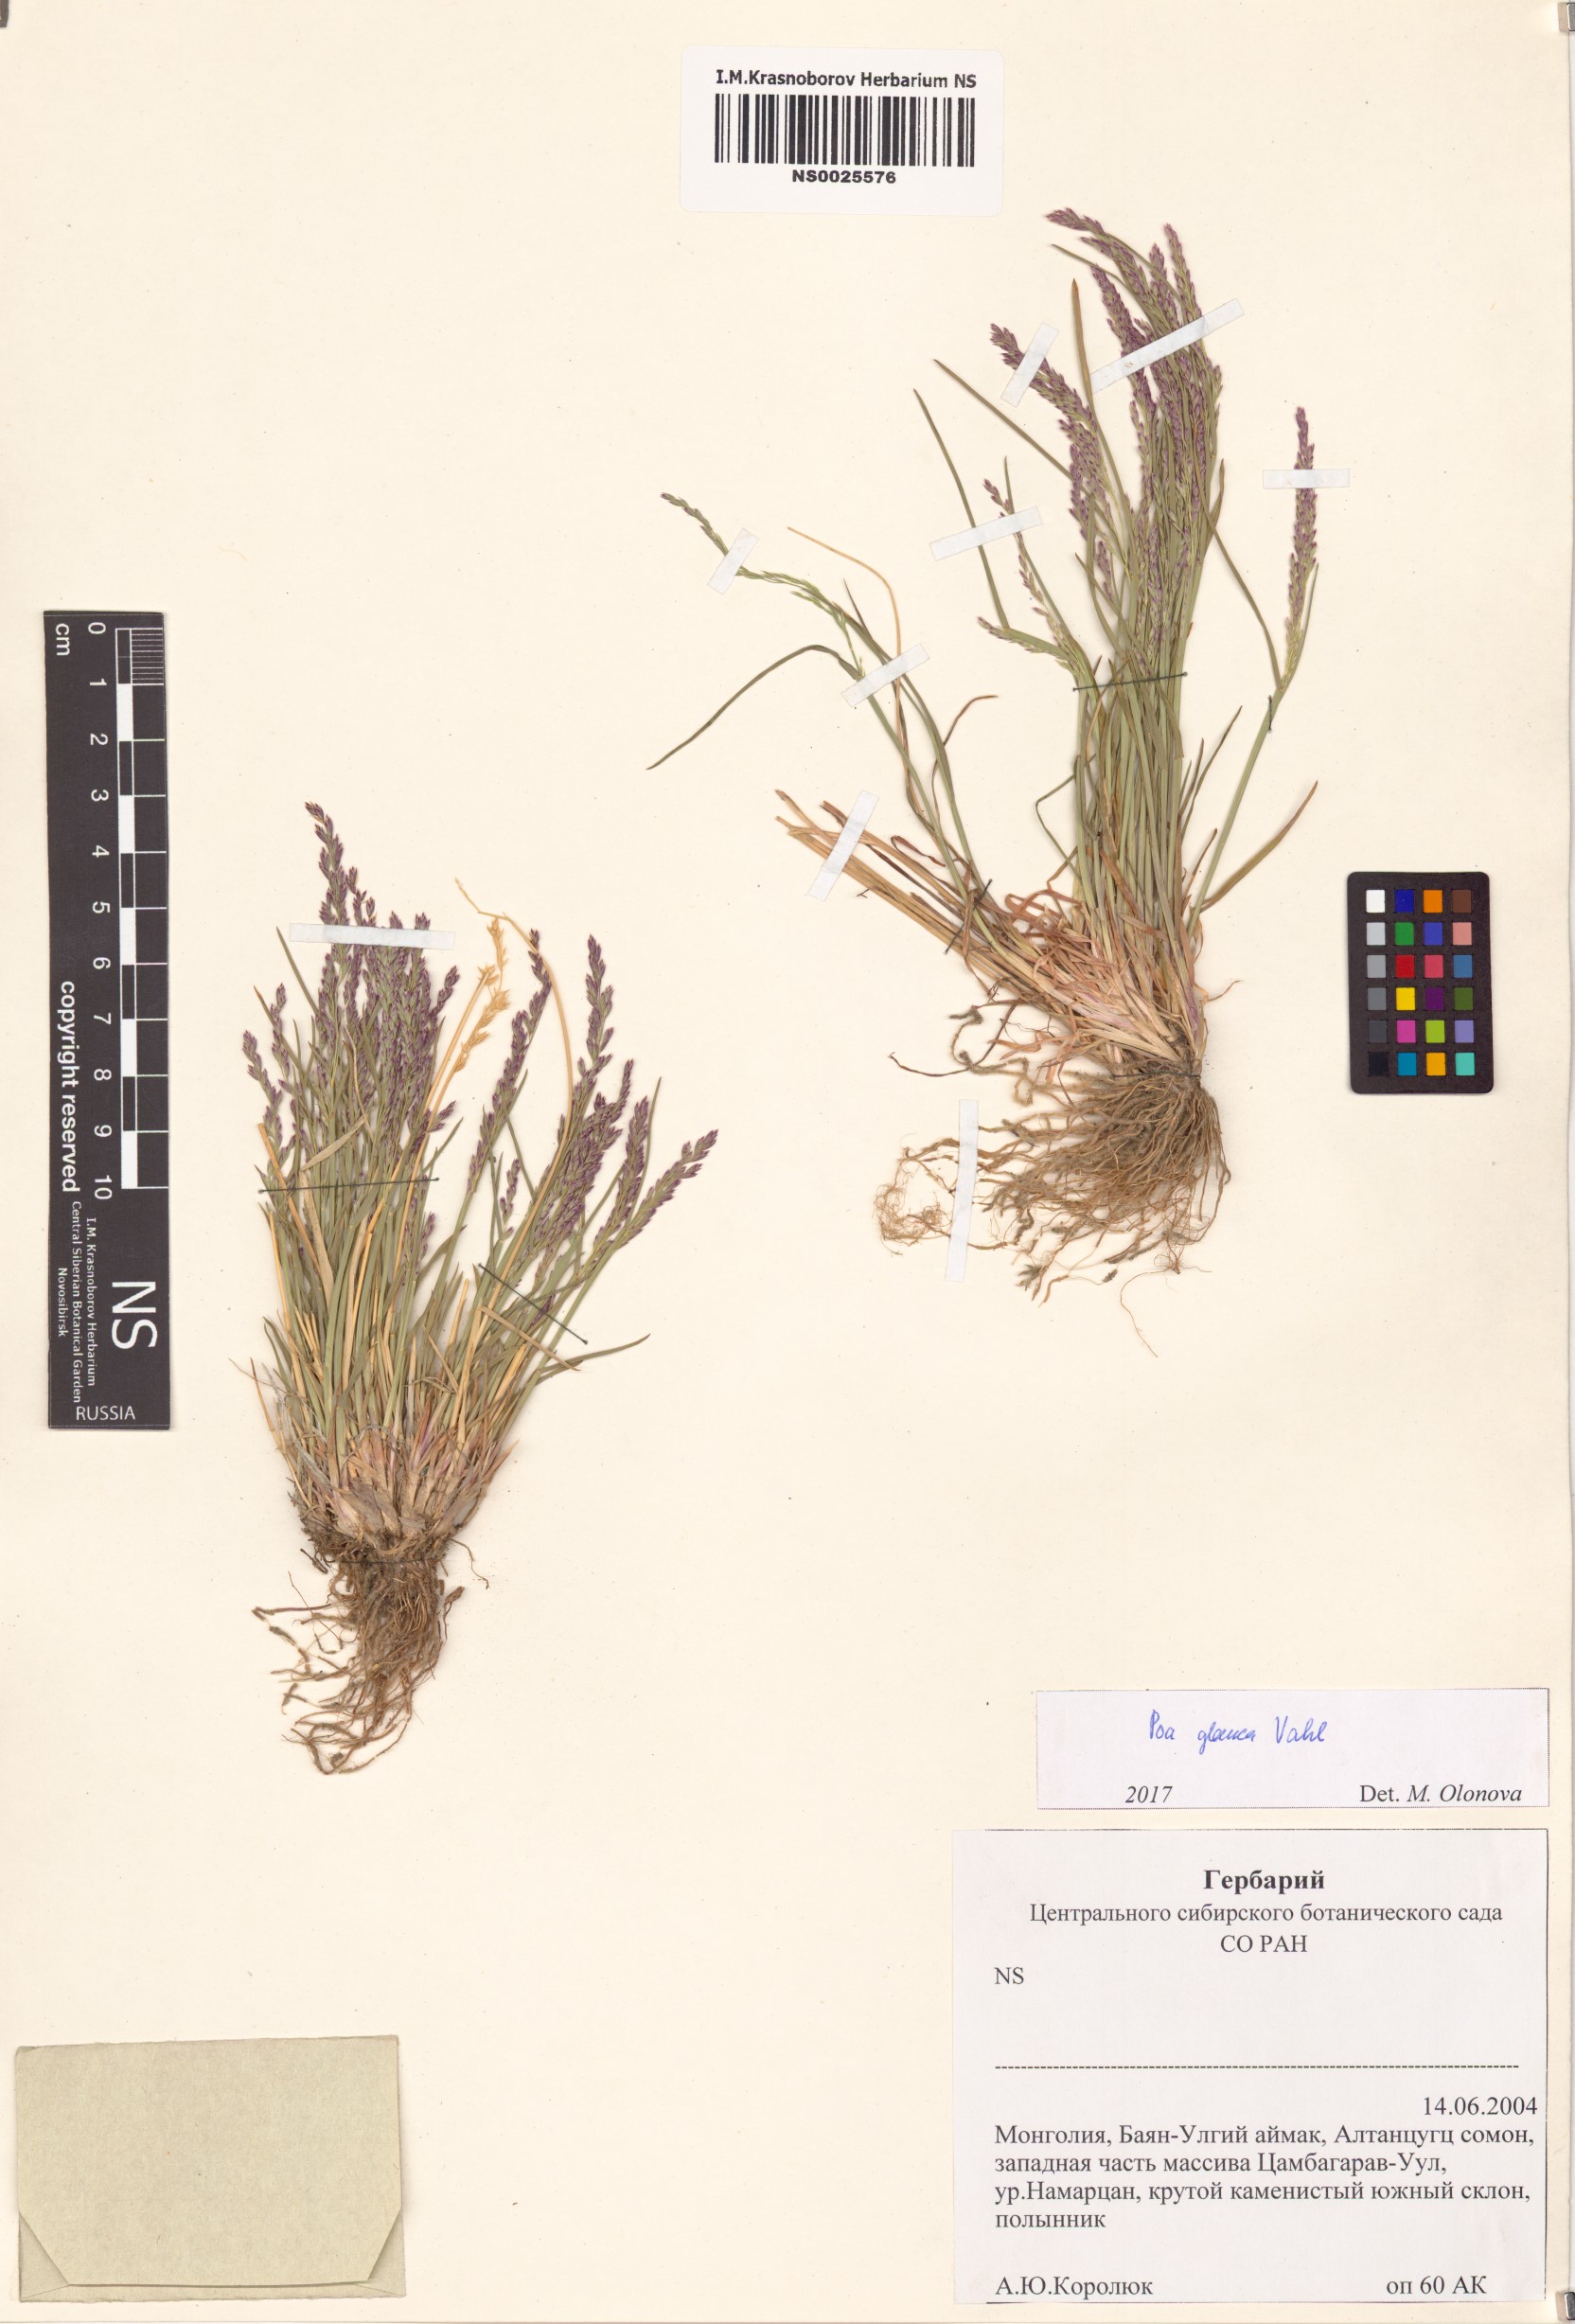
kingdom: Plantae
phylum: Tracheophyta
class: Liliopsida
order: Poales
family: Poaceae
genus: Poa
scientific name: Poa glauca
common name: Glaucous bluegrass
